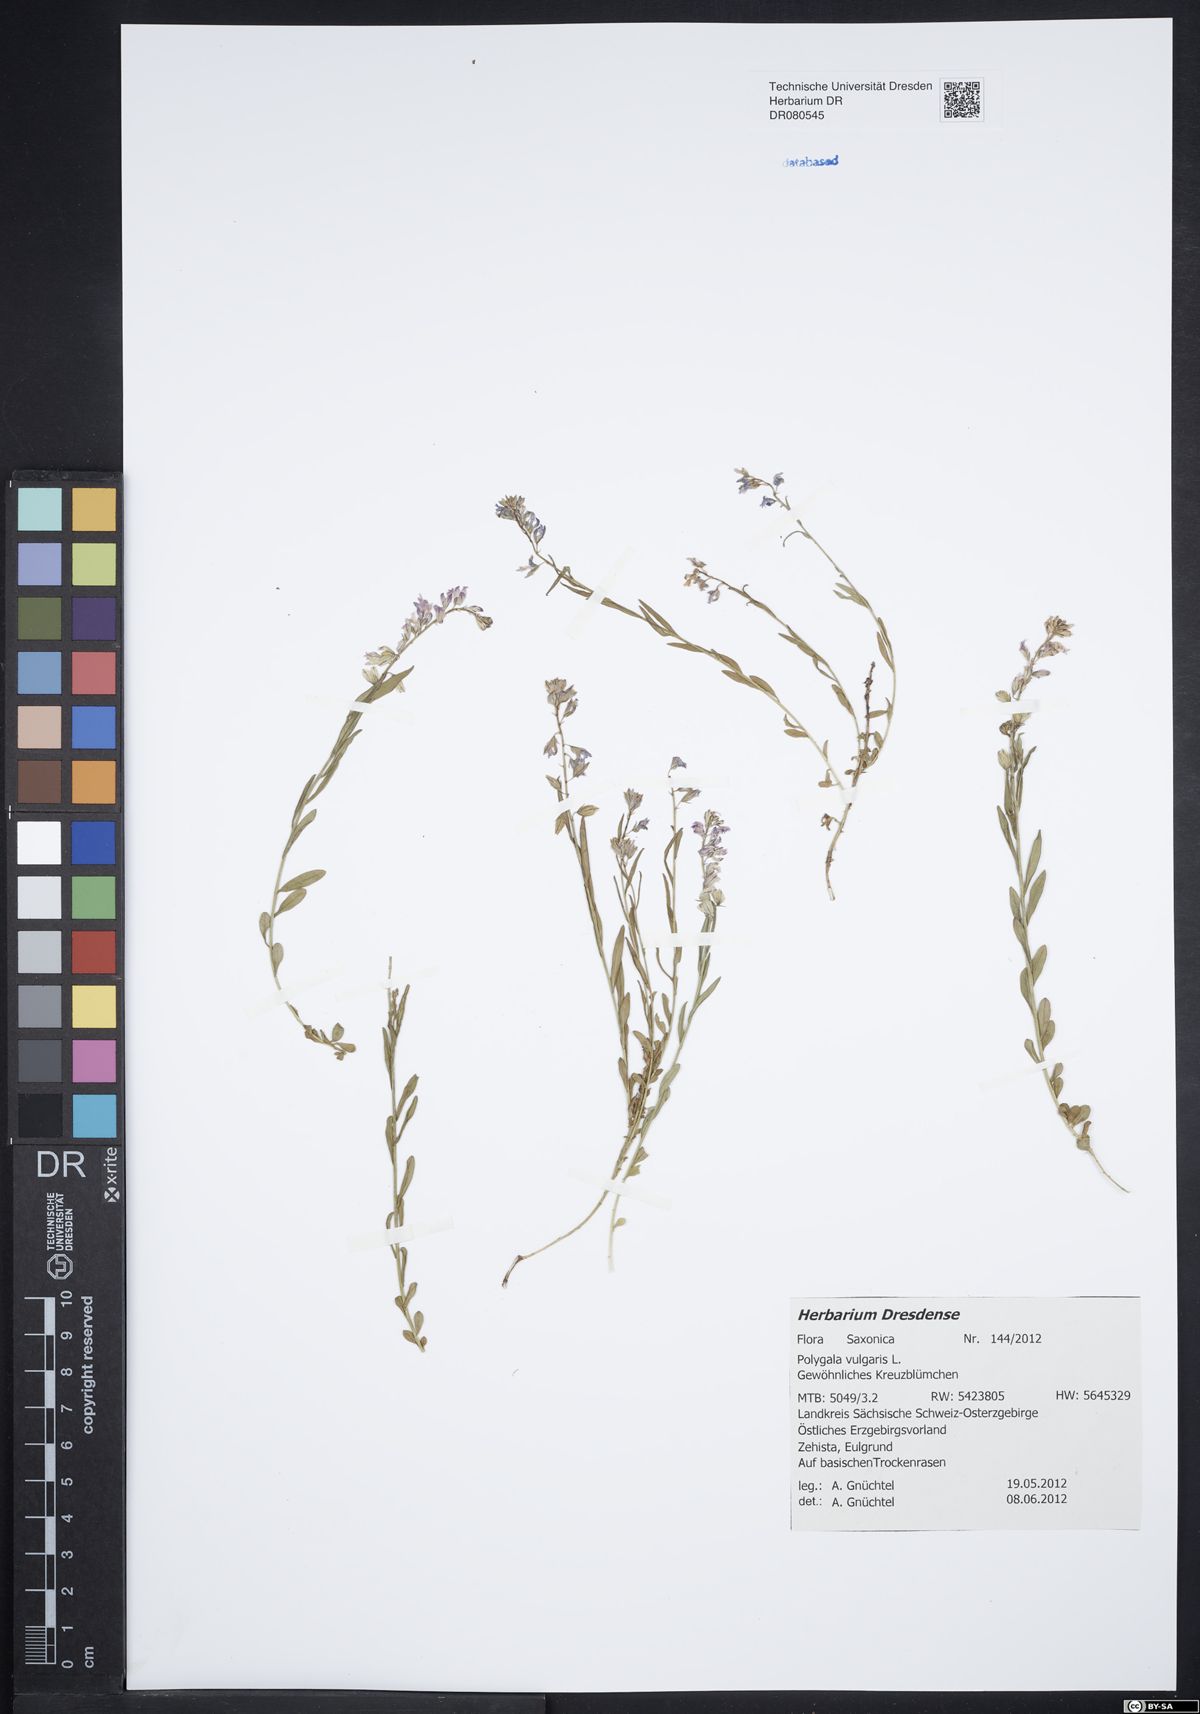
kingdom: Plantae
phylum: Tracheophyta
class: Magnoliopsida
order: Fabales
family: Polygalaceae
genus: Polygala
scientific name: Polygala vulgaris
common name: Common milkwort
